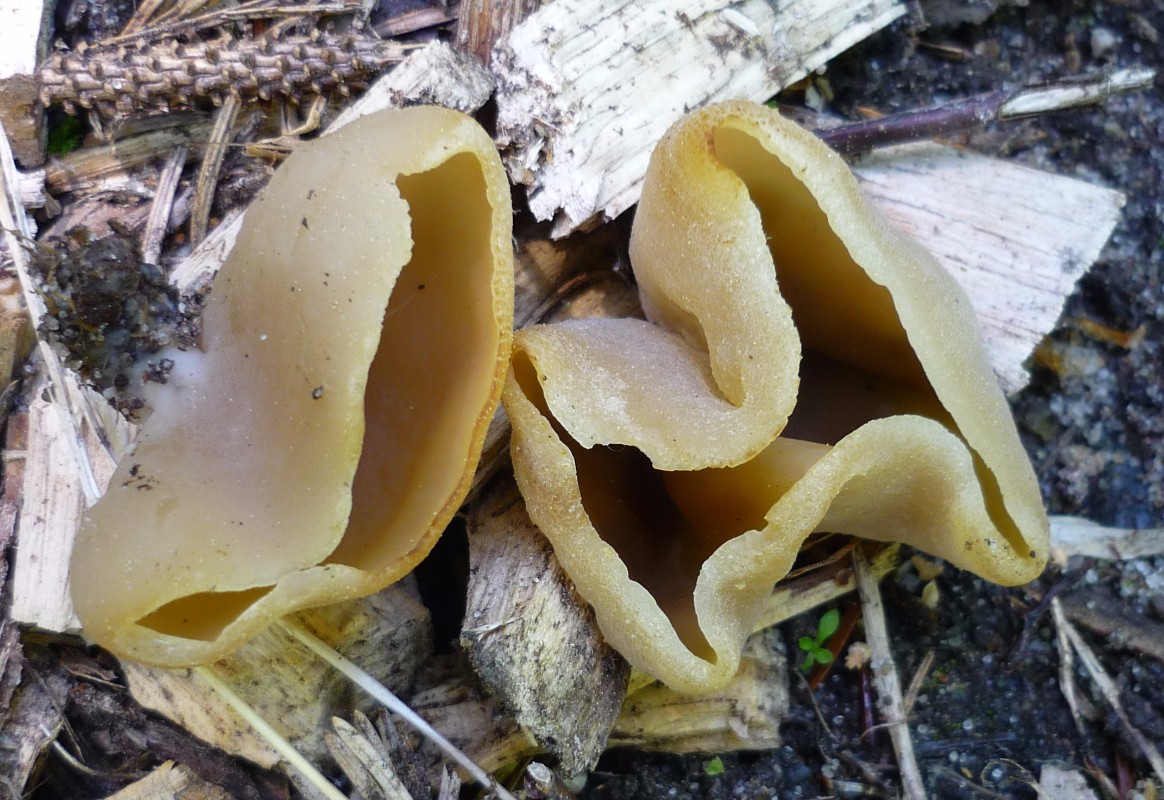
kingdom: Fungi
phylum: Ascomycota
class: Pezizomycetes
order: Pezizales
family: Pezizaceae
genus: Peziza
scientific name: Peziza arvernensis
